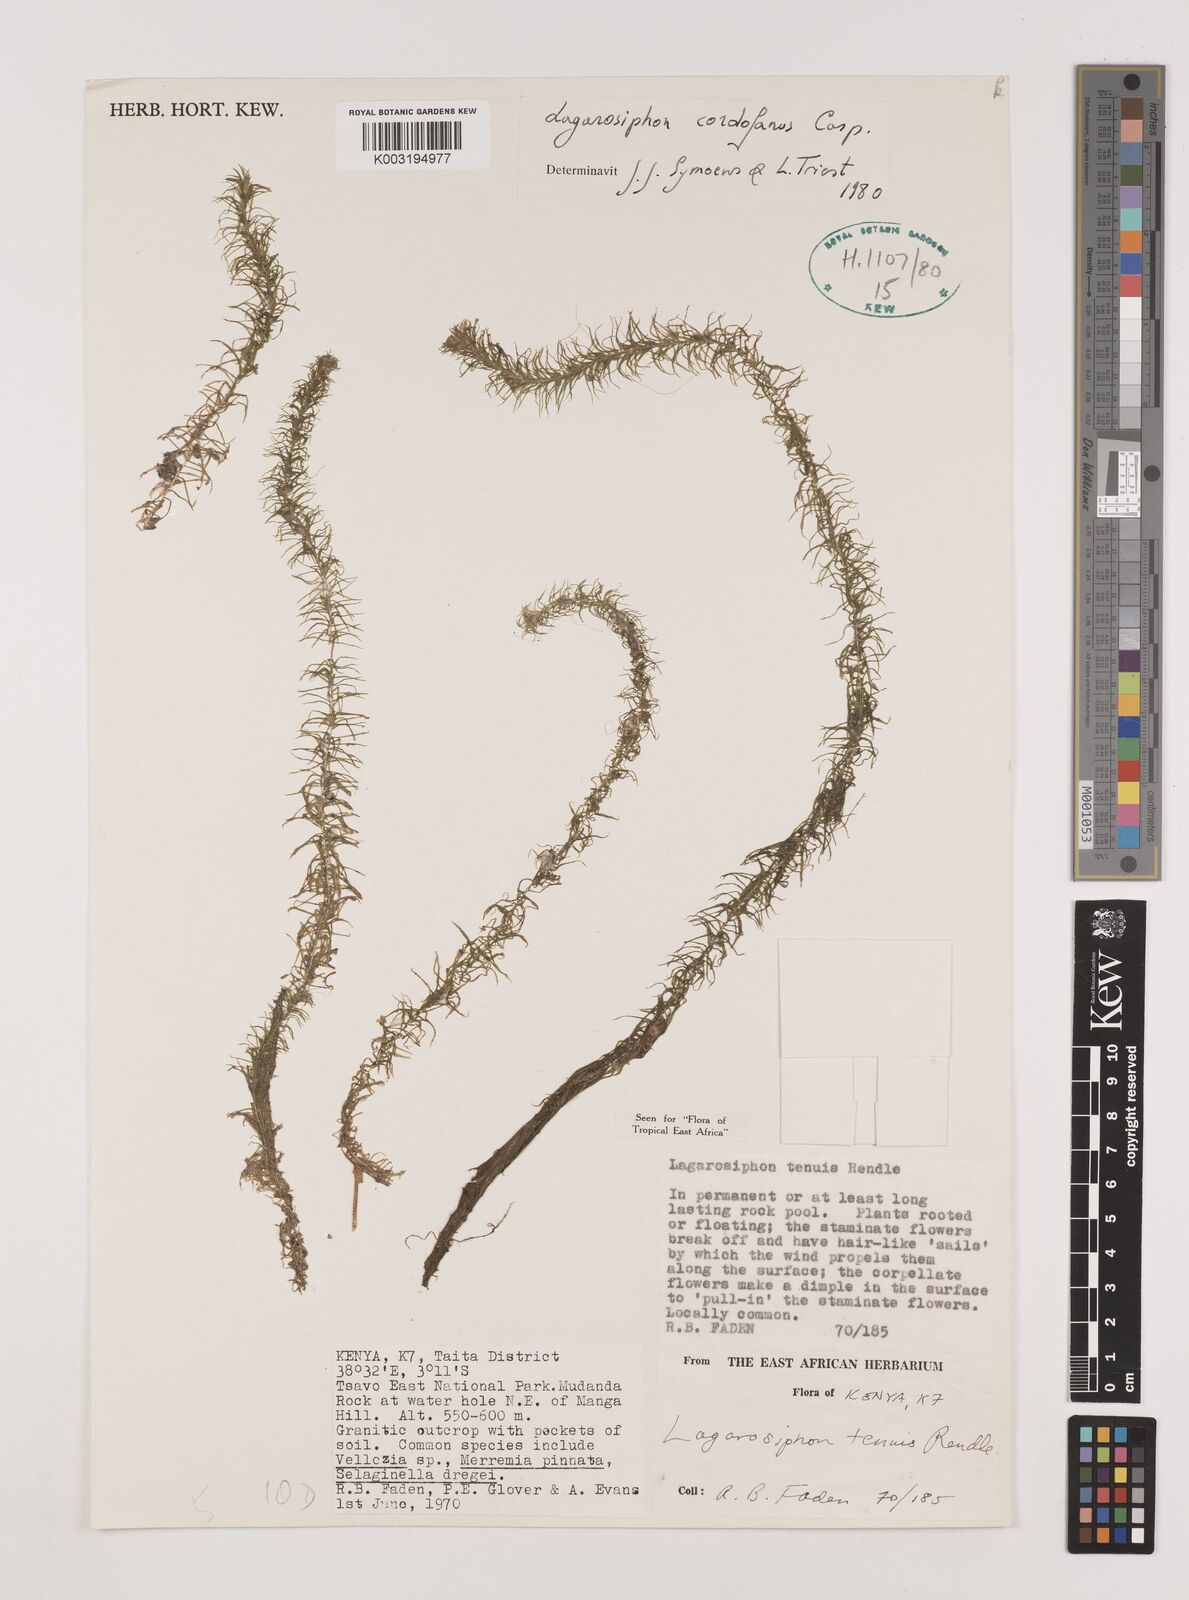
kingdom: Plantae
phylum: Tracheophyta
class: Liliopsida
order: Alismatales
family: Hydrocharitaceae
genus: Lagarosiphon
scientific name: Lagarosiphon cordofanus
